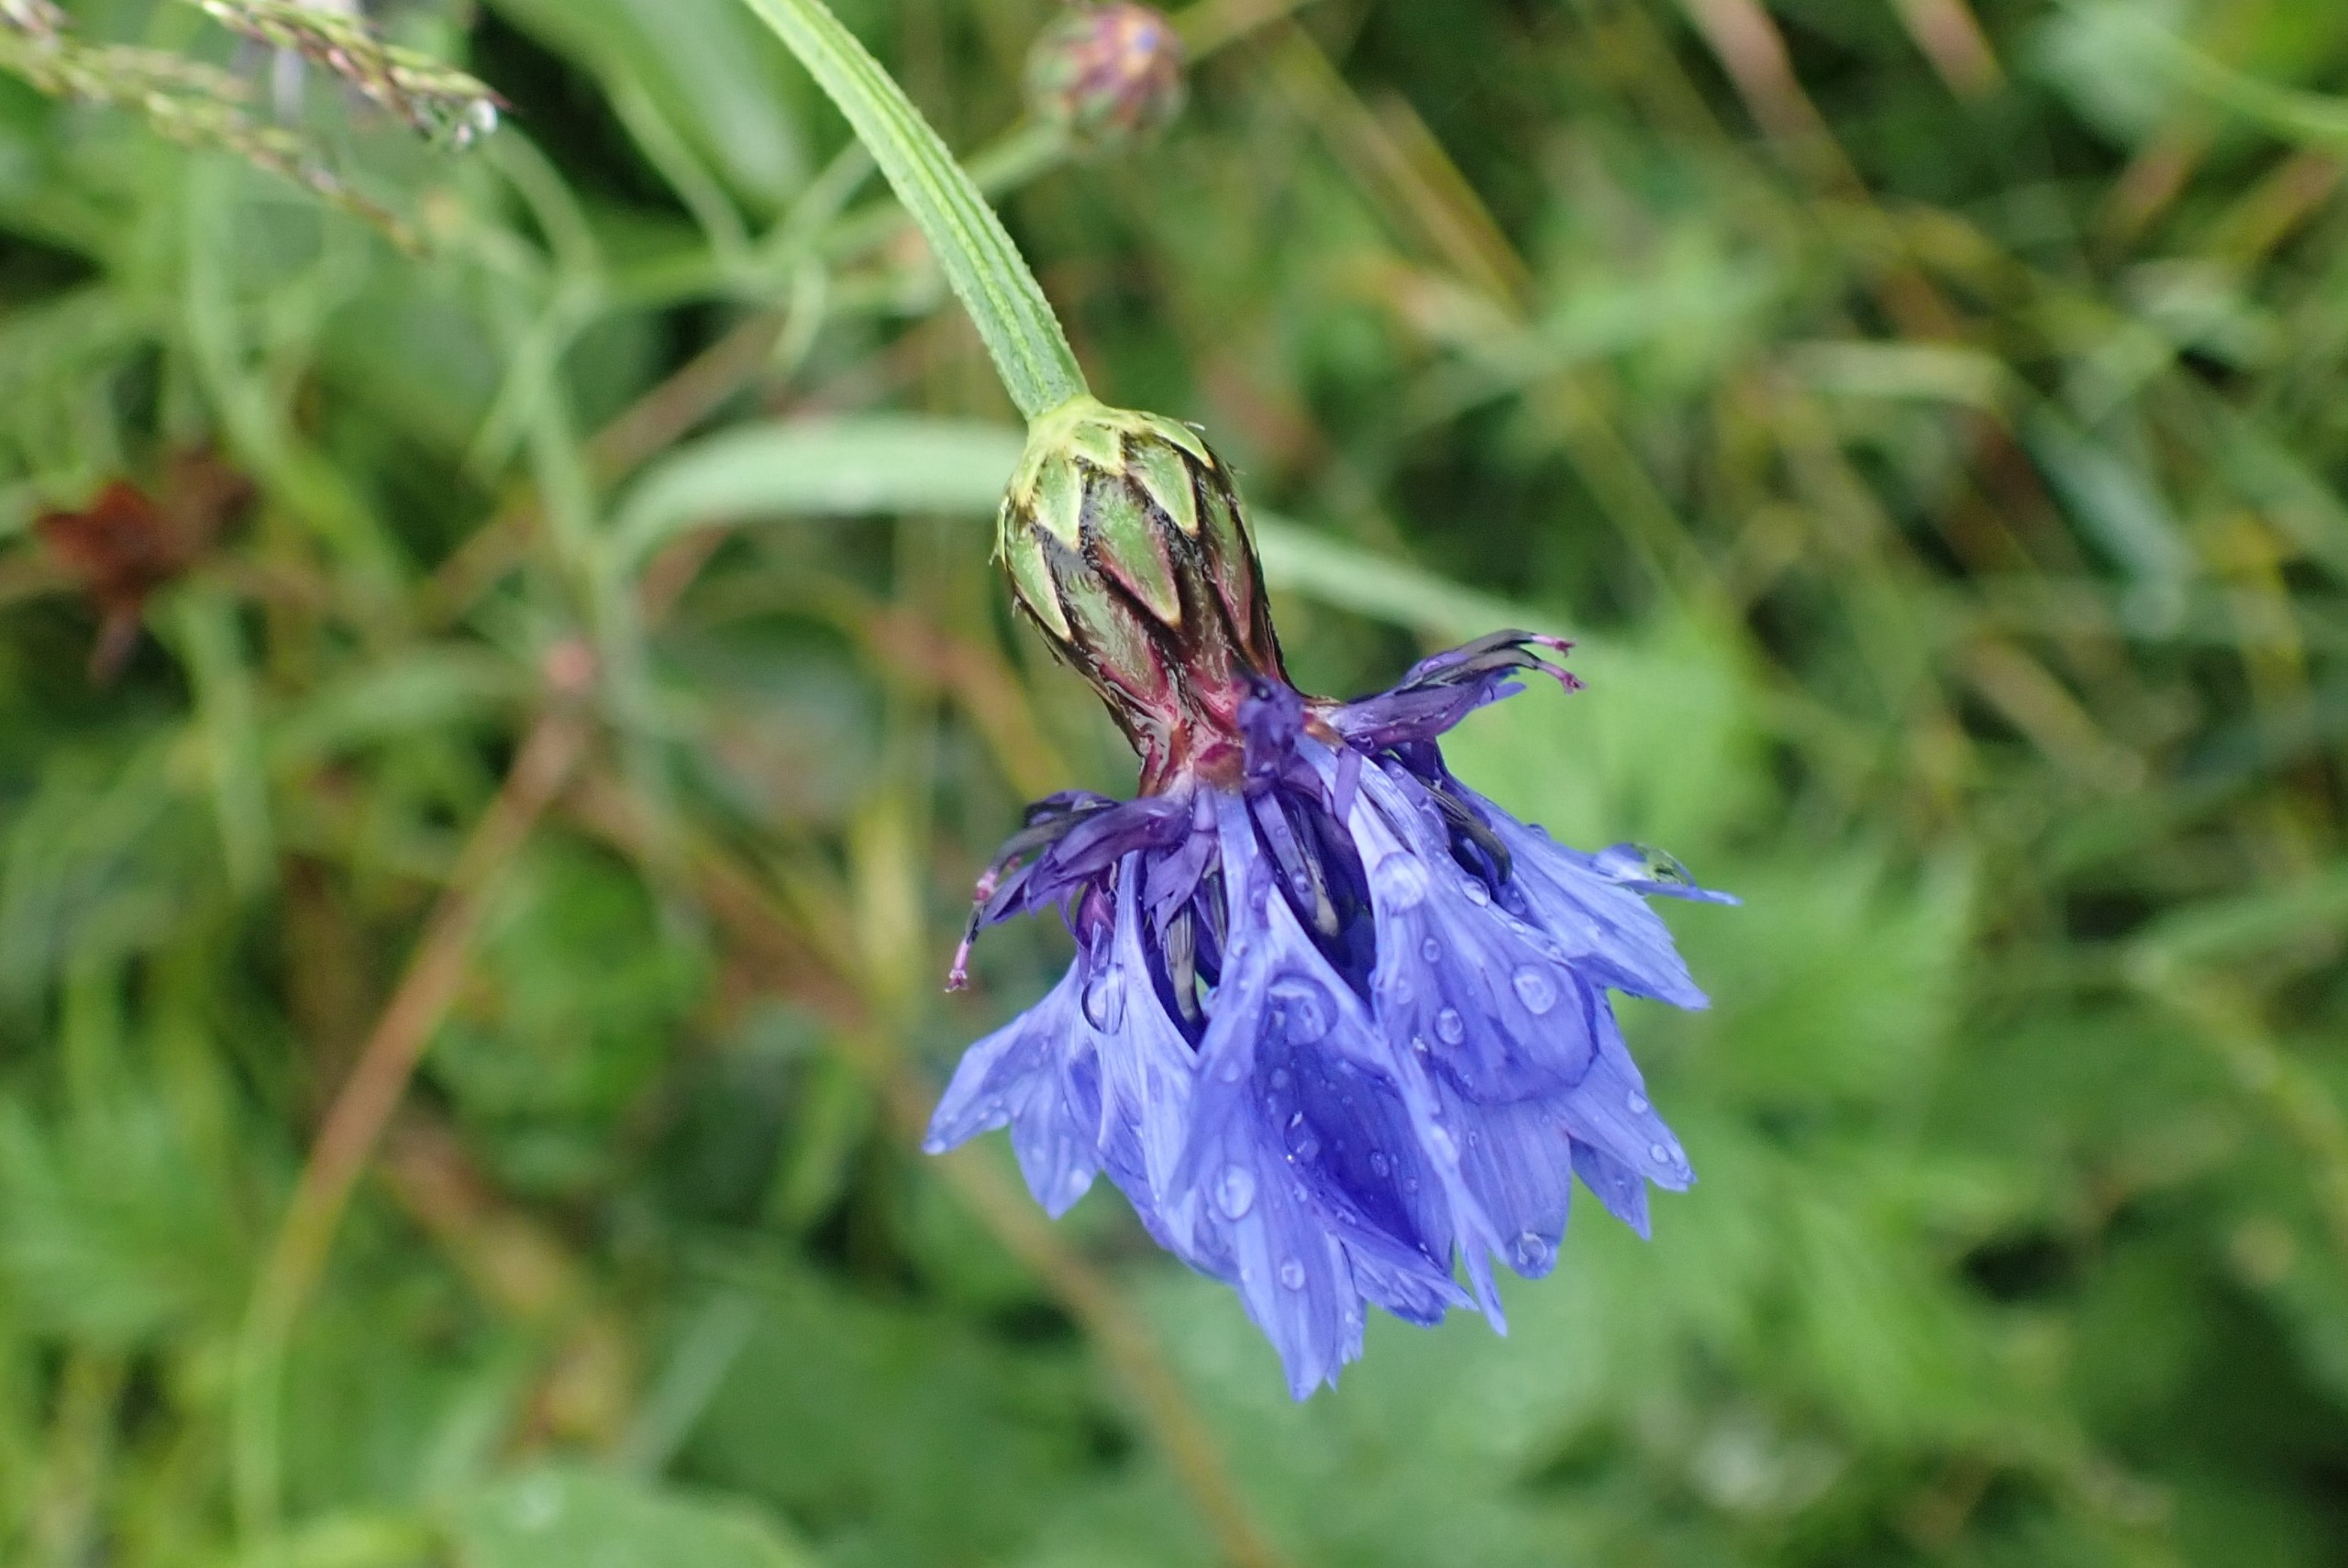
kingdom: Plantae
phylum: Tracheophyta
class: Magnoliopsida
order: Asterales
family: Asteraceae
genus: Centaurea
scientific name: Centaurea cyanus
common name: Kornblomst
